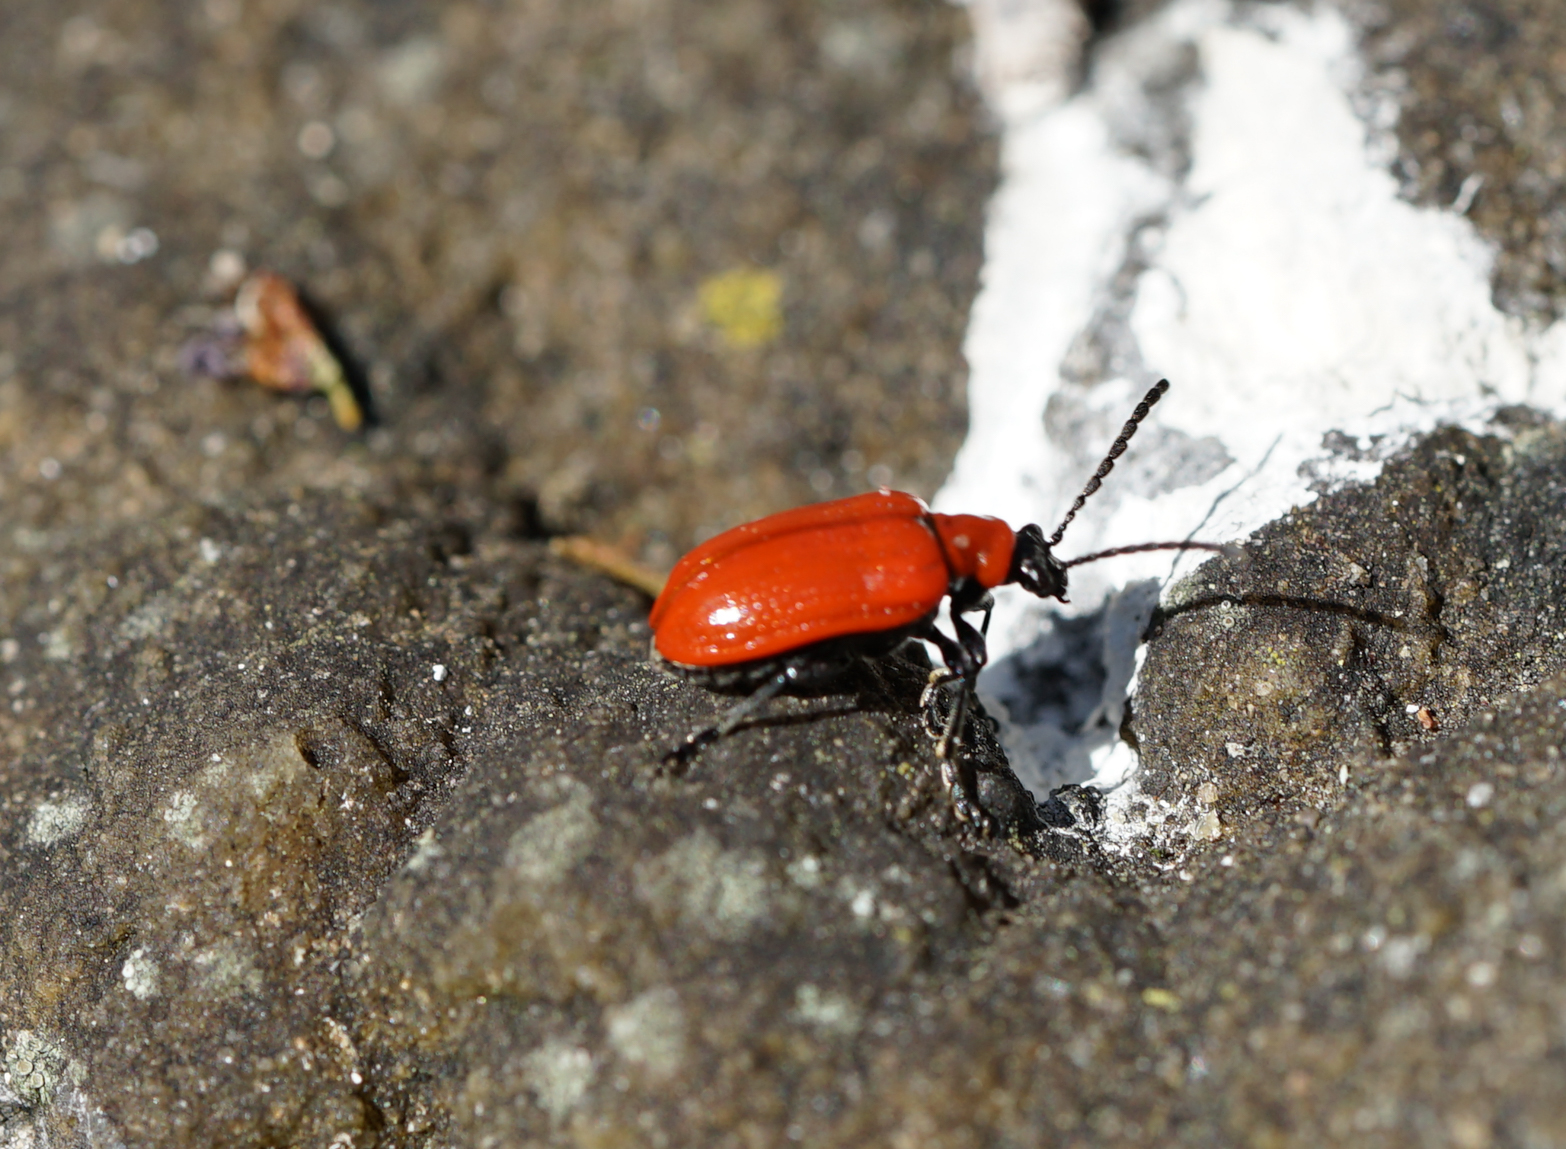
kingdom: Animalia
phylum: Arthropoda
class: Insecta
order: Coleoptera
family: Chrysomelidae
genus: Lilioceris
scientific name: Lilioceris lilii
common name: Lily beetle
